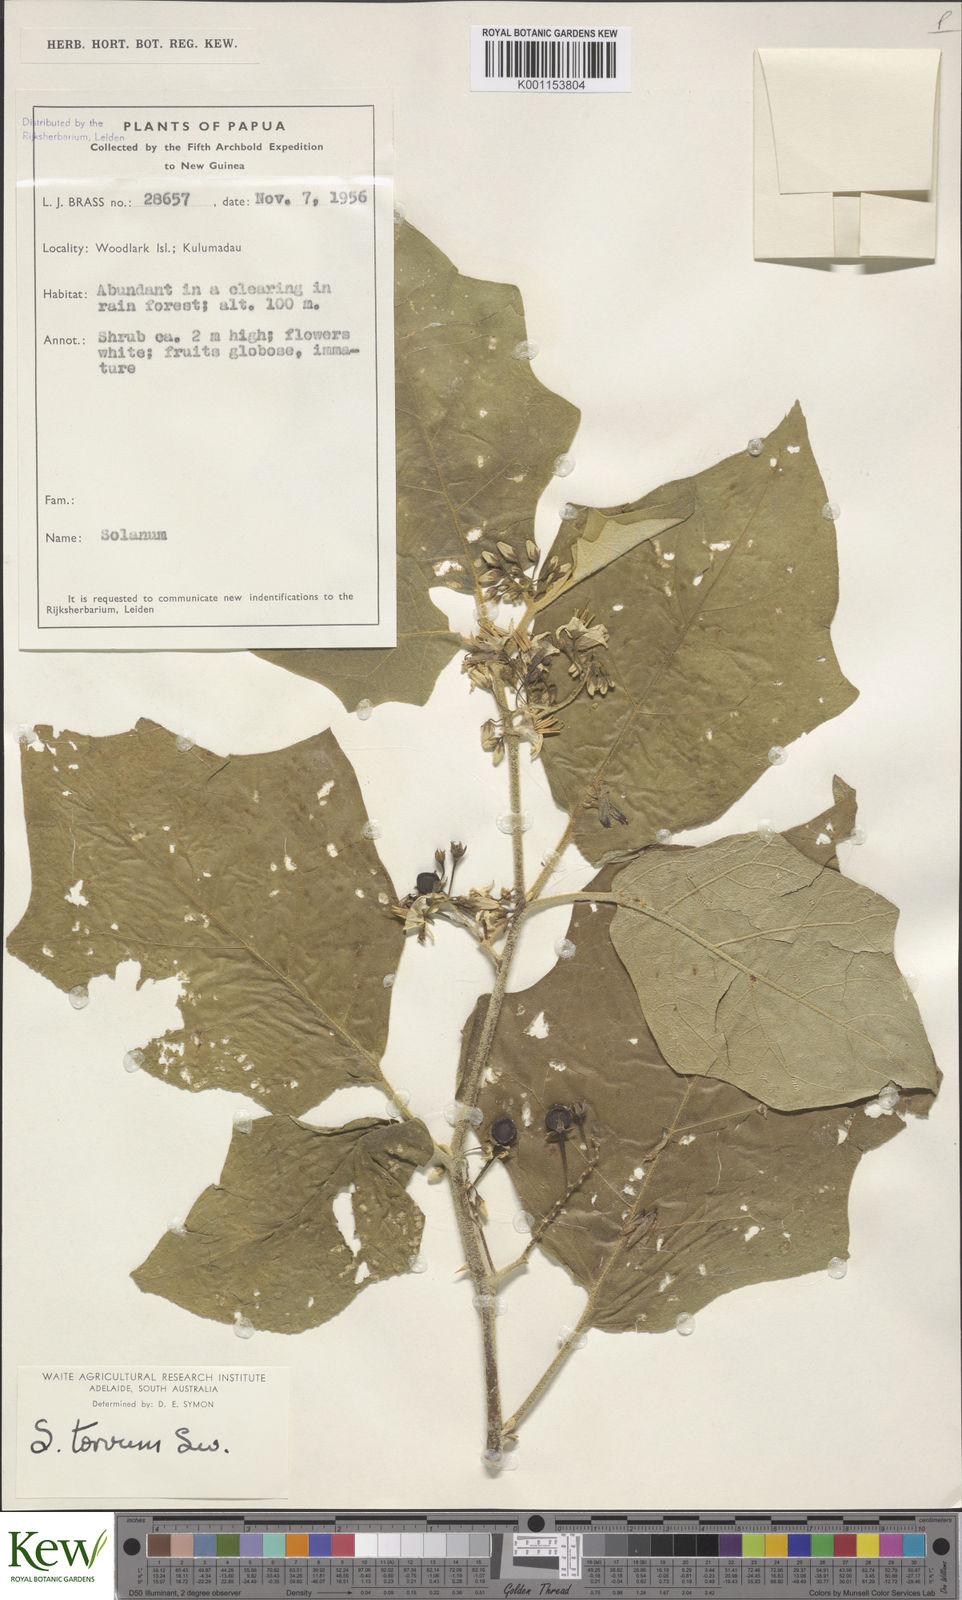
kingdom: Plantae
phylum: Tracheophyta
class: Magnoliopsida
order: Solanales
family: Solanaceae
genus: Solanum
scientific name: Solanum torvum
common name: Turkey berry
